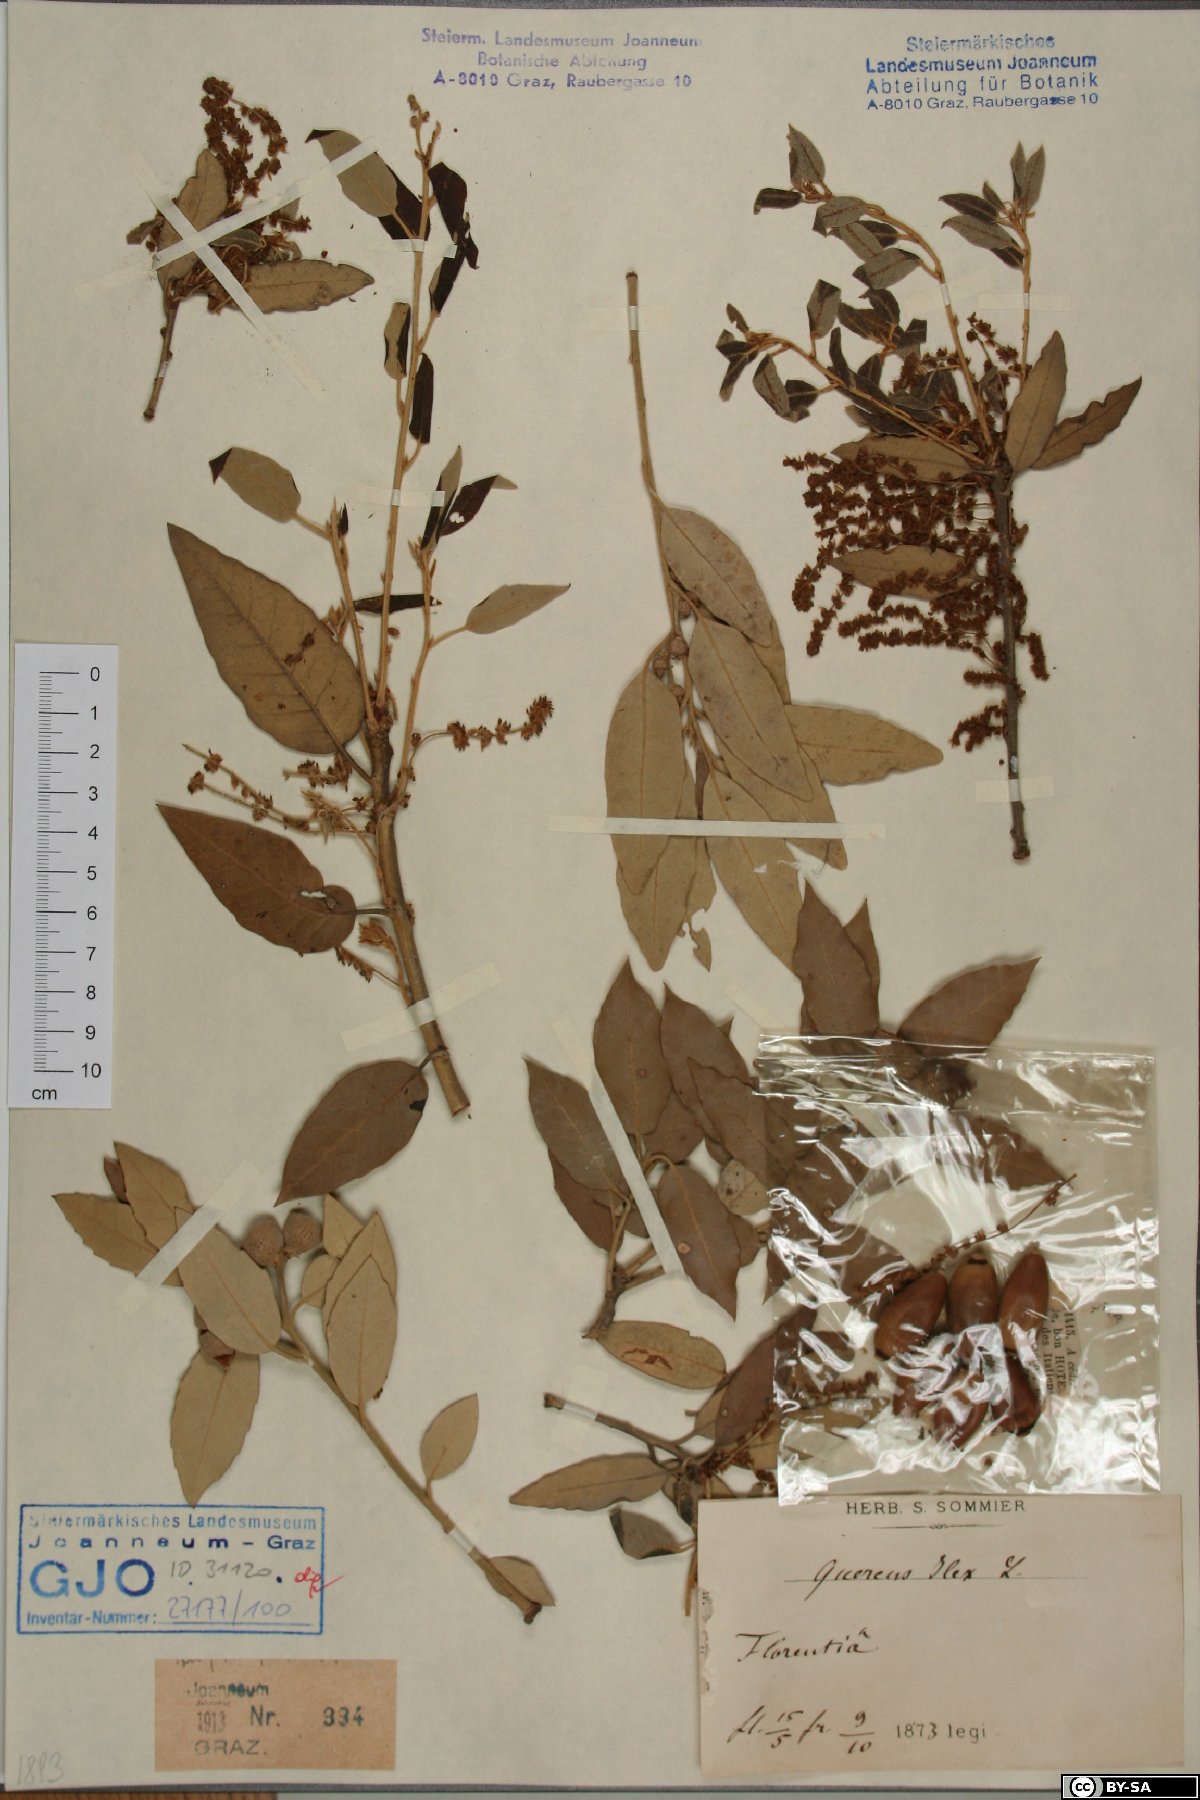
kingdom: Plantae
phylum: Tracheophyta
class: Magnoliopsida
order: Fagales
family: Fagaceae
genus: Quercus
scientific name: Quercus ilex
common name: Evergreen oak
